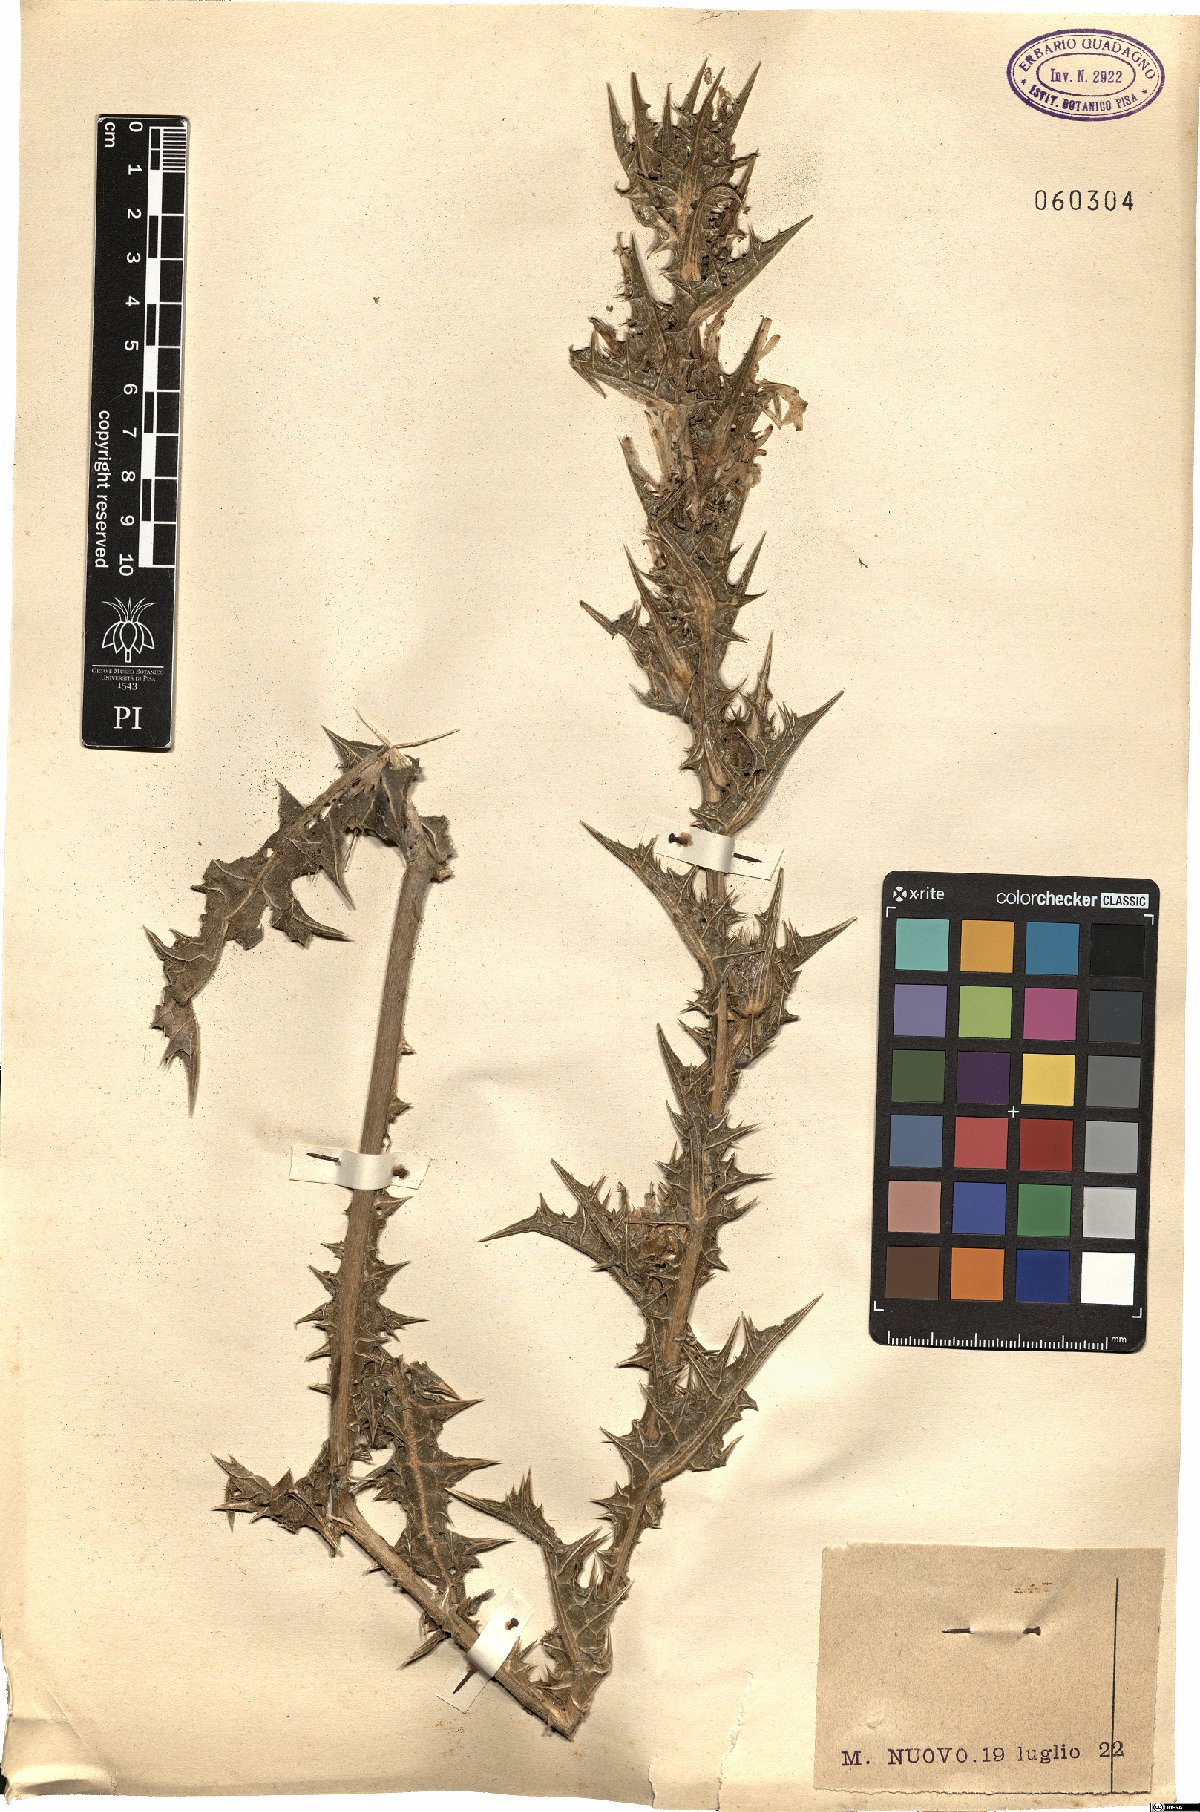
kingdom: Plantae
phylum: Tracheophyta
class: Magnoliopsida
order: Asterales
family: Asteraceae
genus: Carthamus
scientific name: Carthamus lanatus
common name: Downy safflower
